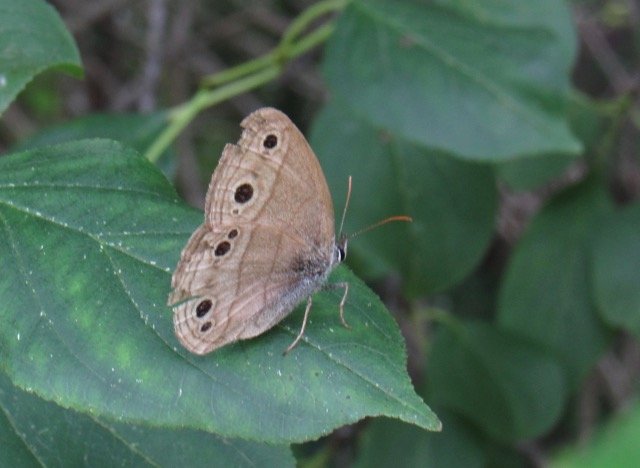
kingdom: Animalia
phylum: Arthropoda
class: Insecta
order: Lepidoptera
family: Nymphalidae
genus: Euptychia
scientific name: Euptychia cymela
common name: Little Wood Satyr
